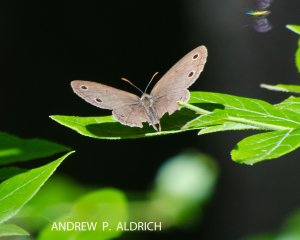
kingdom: Animalia
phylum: Arthropoda
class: Insecta
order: Lepidoptera
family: Nymphalidae
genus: Euptychia
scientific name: Euptychia cymela
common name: Little Wood Satyr
